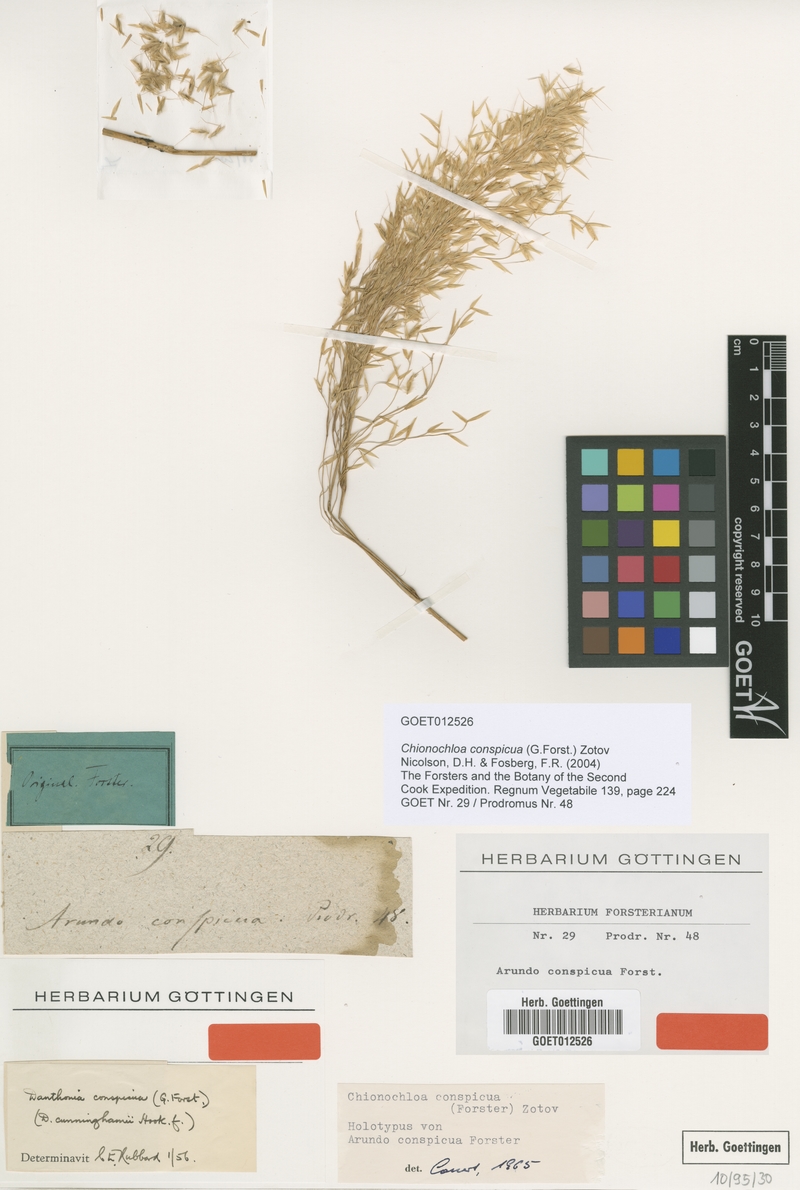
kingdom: Plantae
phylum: Tracheophyta
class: Liliopsida
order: Poales
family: Poaceae
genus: Chionochloa
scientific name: Chionochloa conspicua
